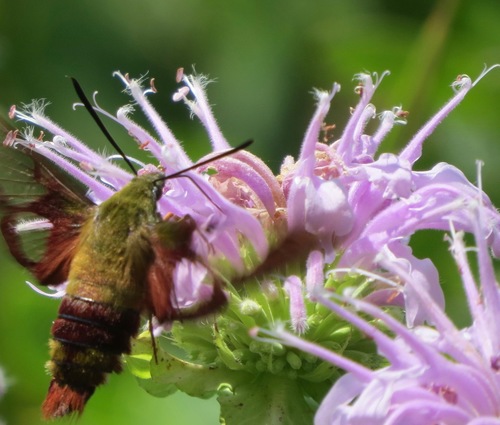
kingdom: Animalia
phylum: Arthropoda
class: Insecta
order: Lepidoptera
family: Sphingidae
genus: Hemaris
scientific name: Hemaris thysbe
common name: Common clear-wing
